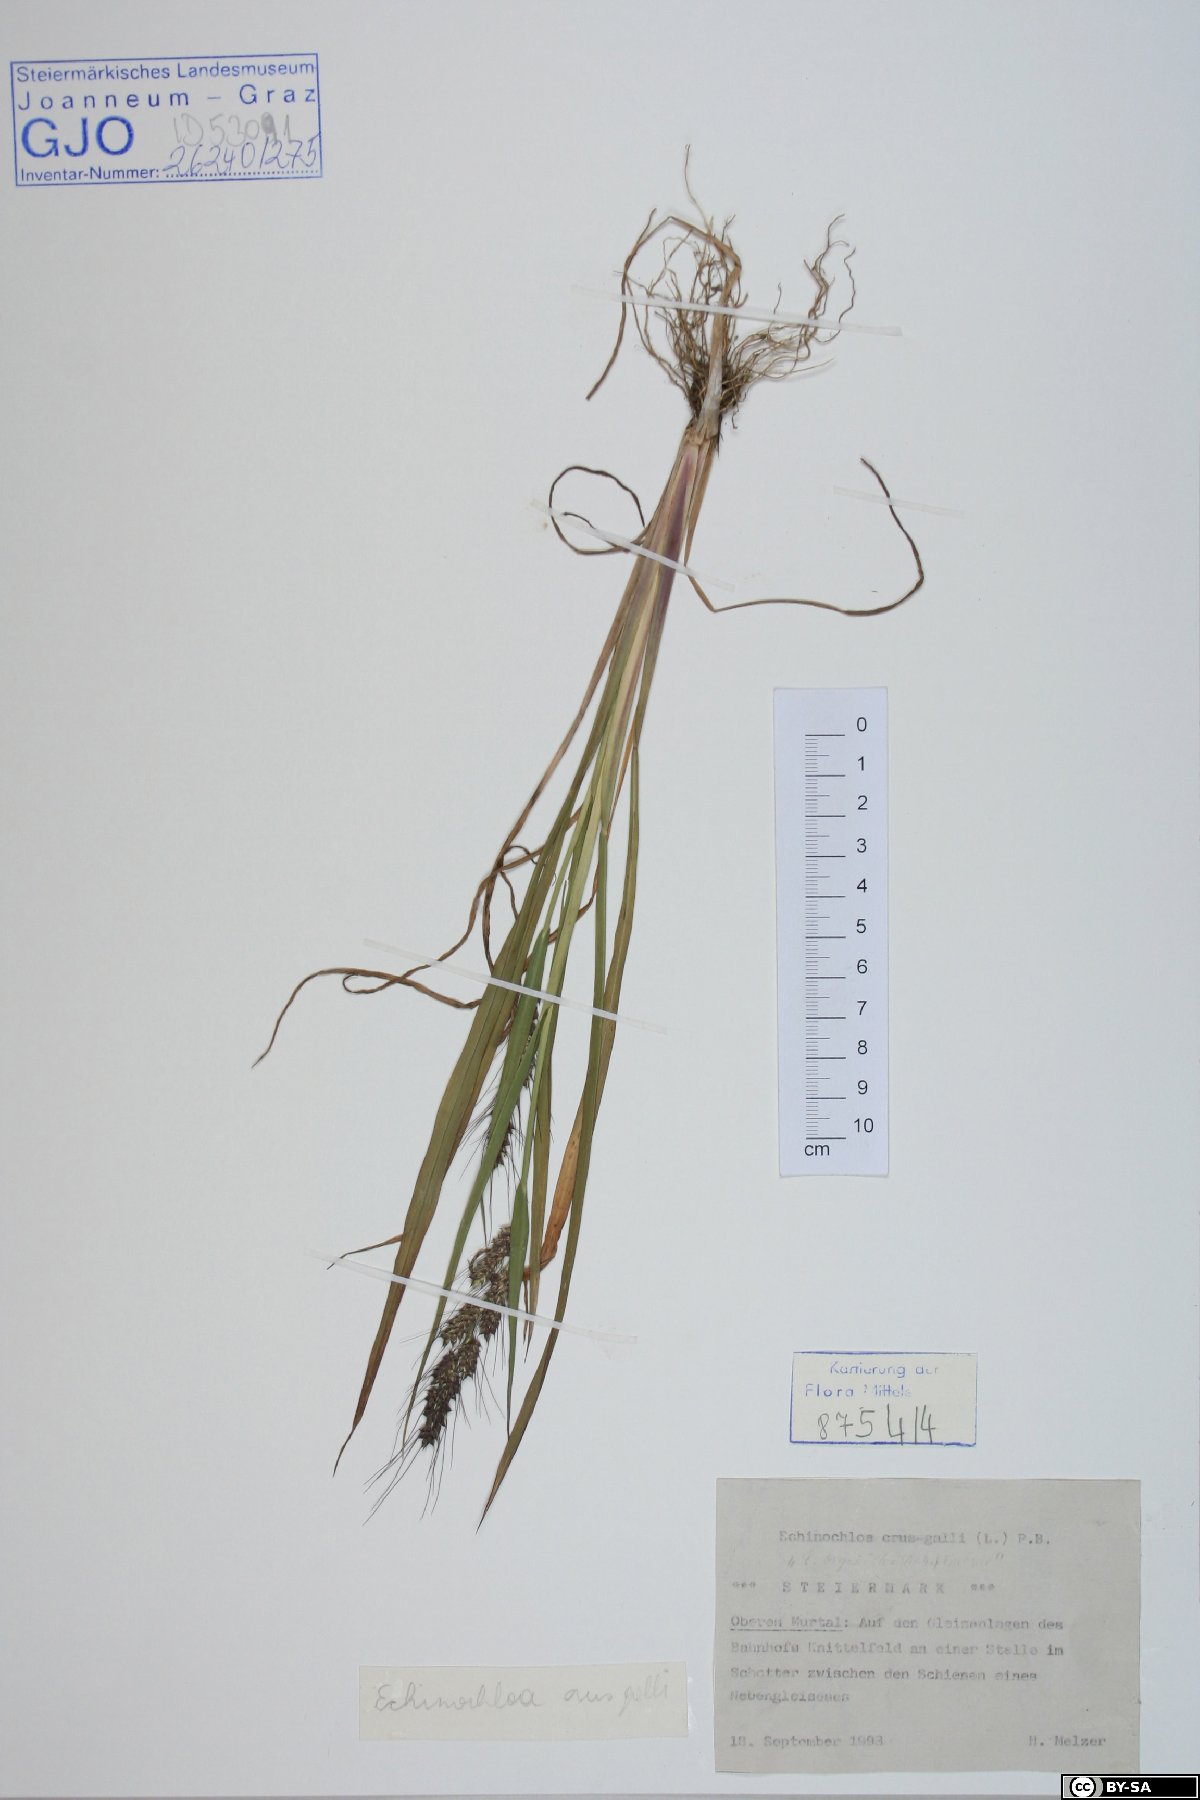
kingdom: Plantae
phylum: Tracheophyta
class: Liliopsida
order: Poales
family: Poaceae
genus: Echinochloa
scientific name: Echinochloa crus-galli
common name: Cockspur
